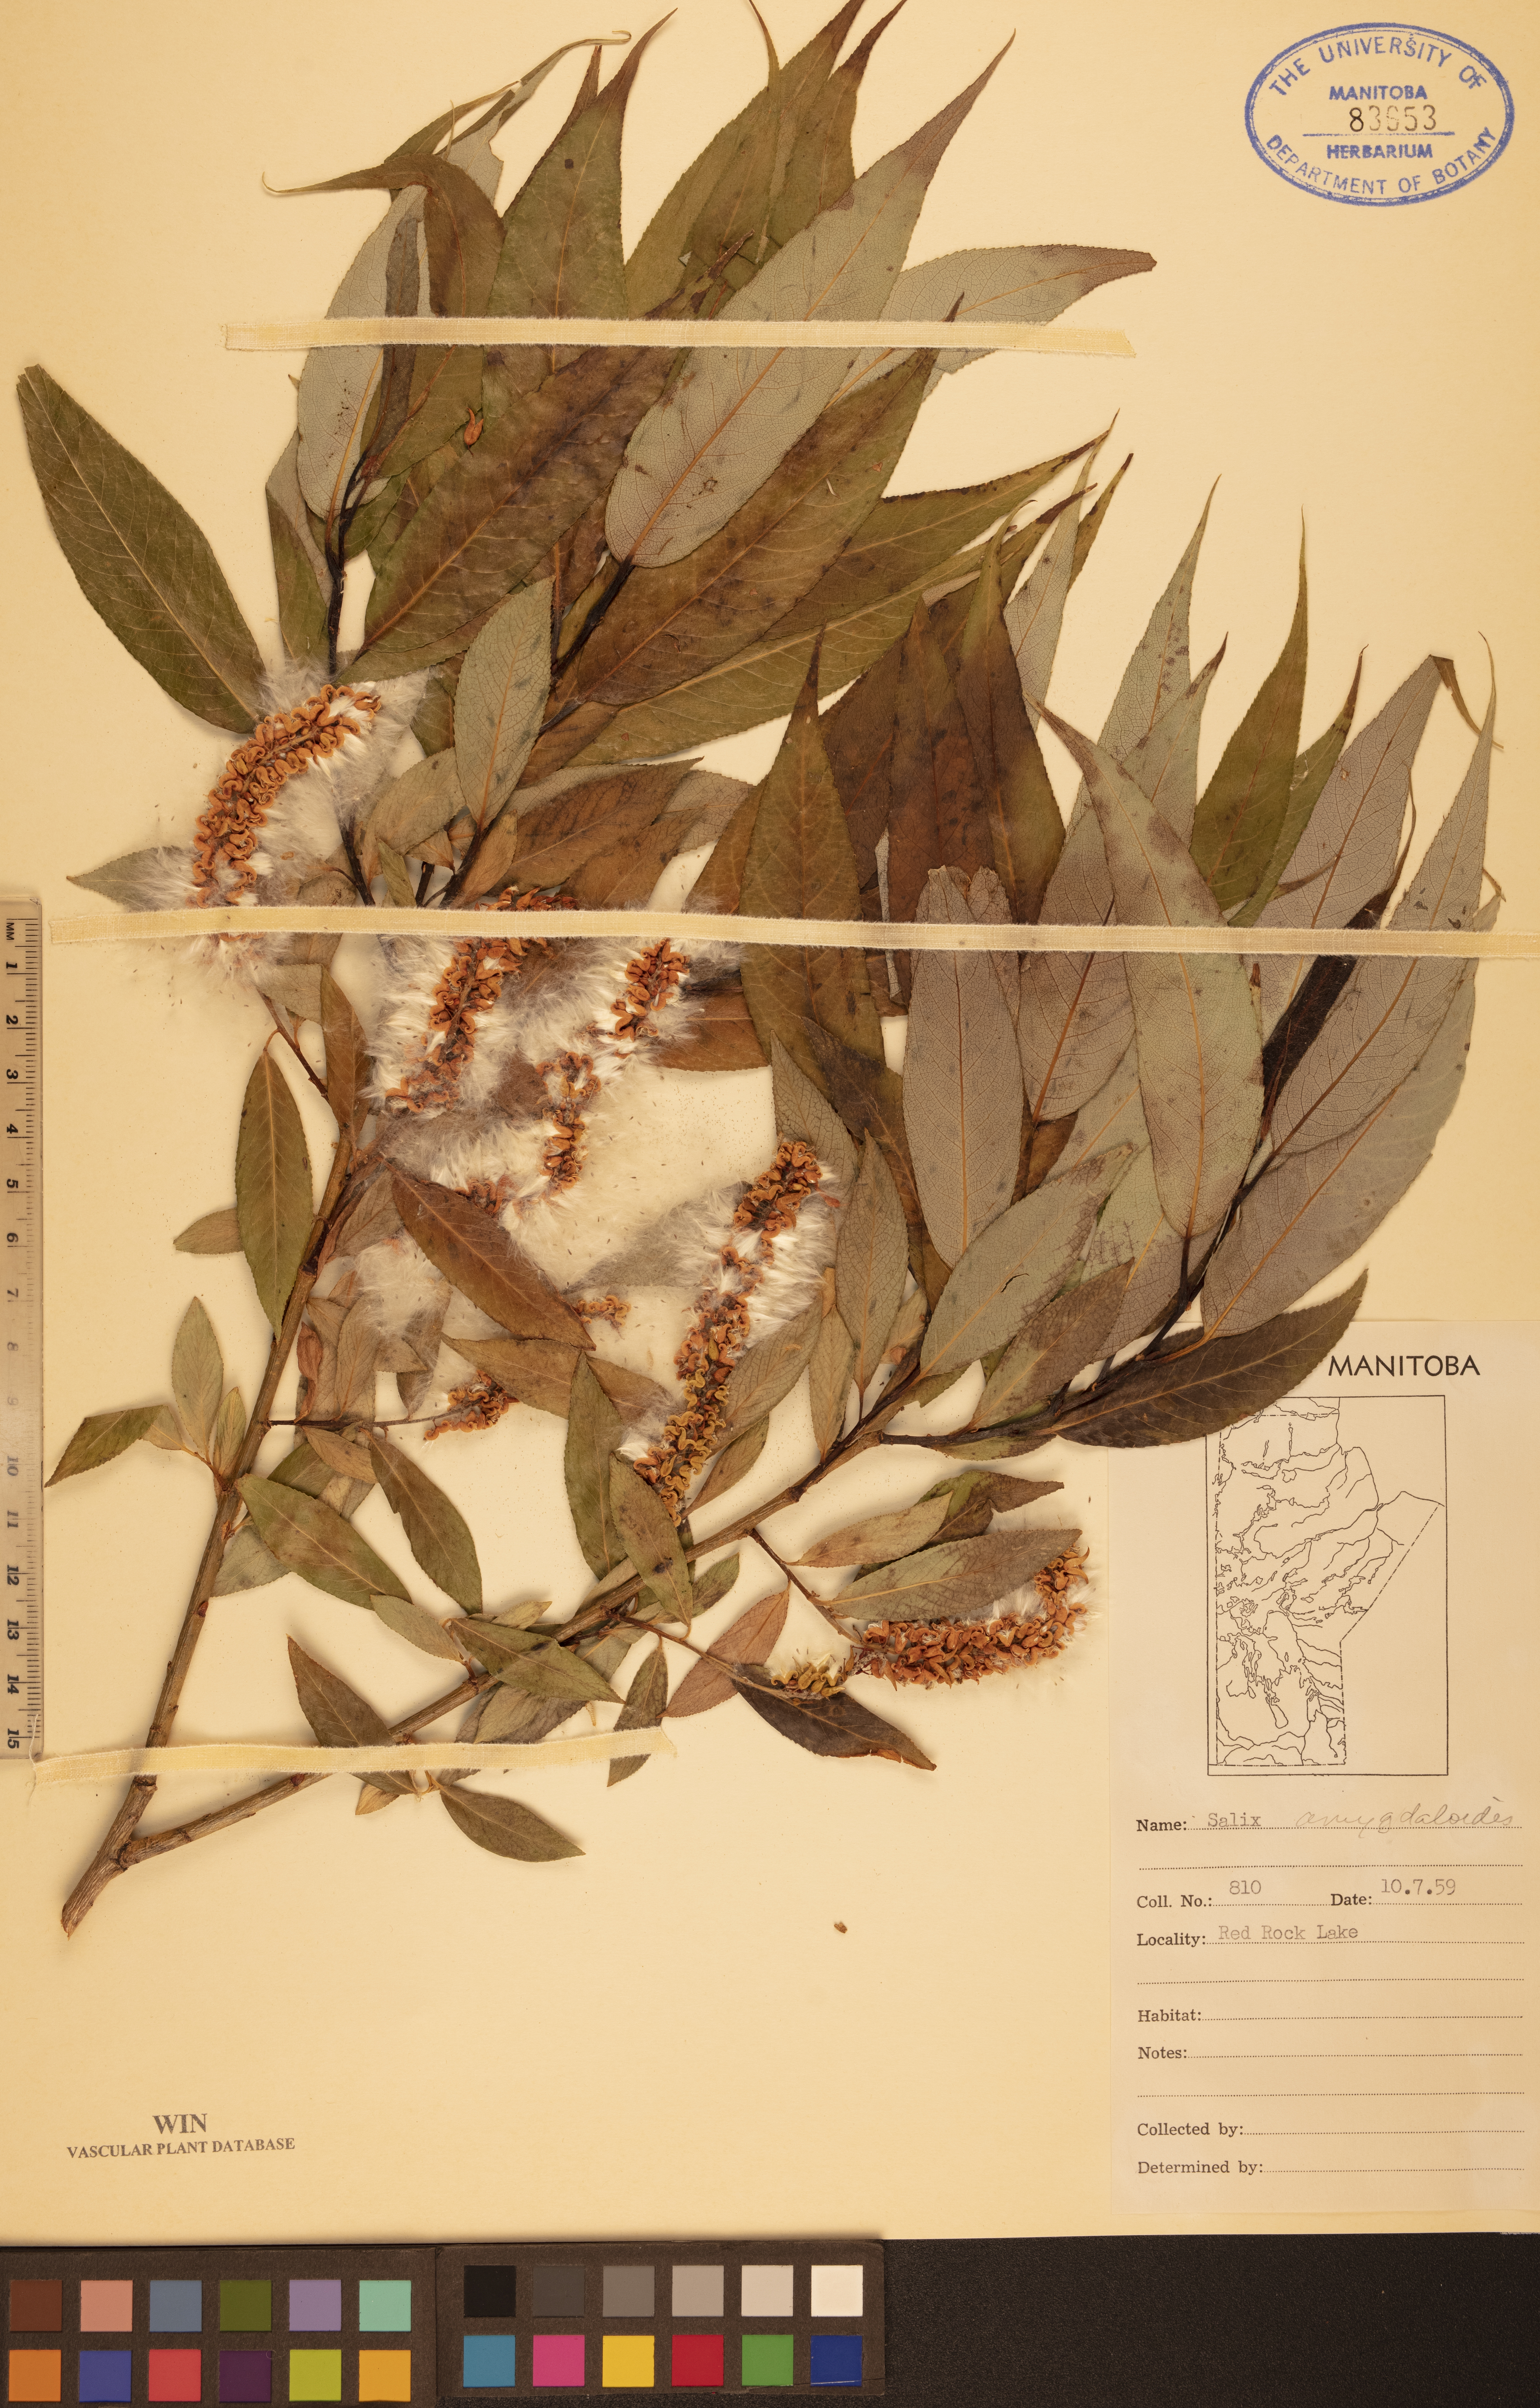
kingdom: Plantae
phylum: Tracheophyta
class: Magnoliopsida
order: Malpighiales
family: Salicaceae
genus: Salix
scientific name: Salix amygdaloides
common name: Peach leaf willow
